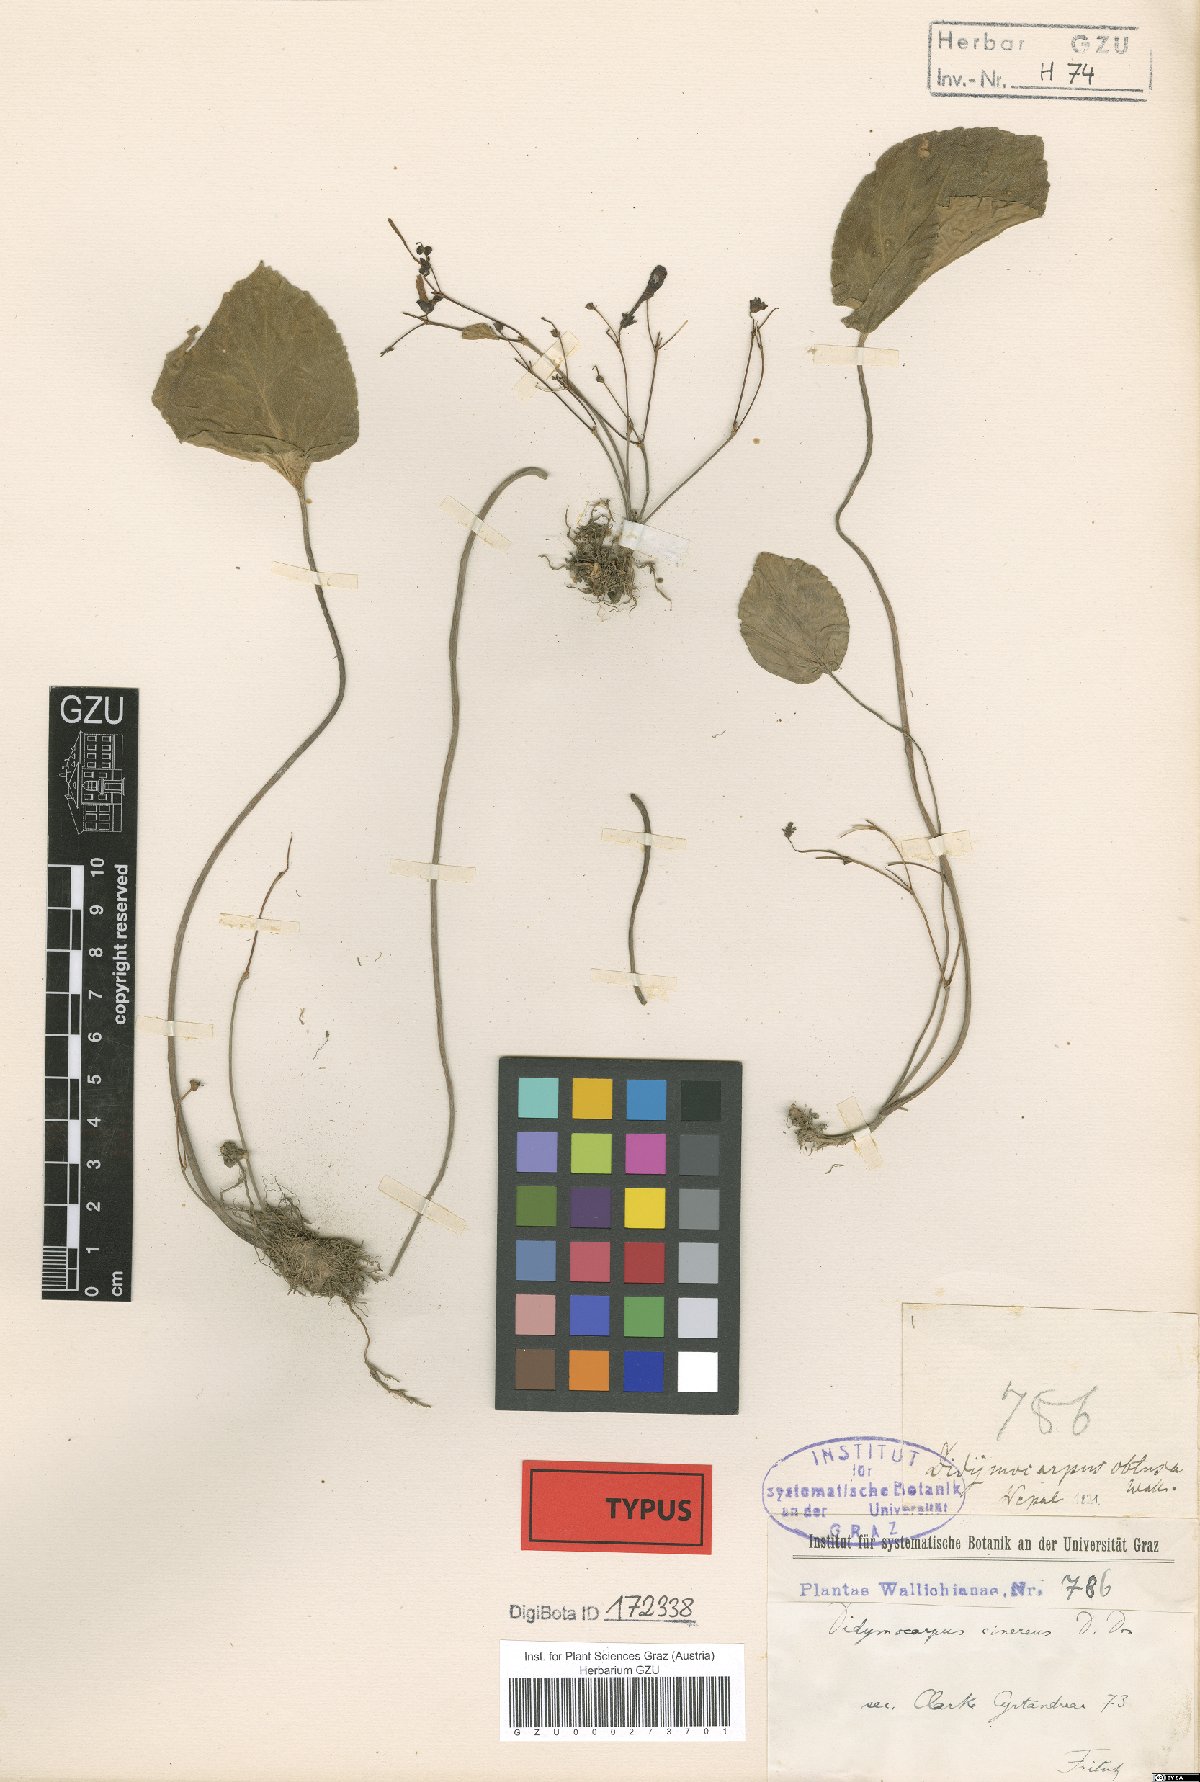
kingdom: Plantae
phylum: Tracheophyta
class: Magnoliopsida
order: Lamiales
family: Gesneriaceae
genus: Didymocarpus
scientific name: Didymocarpus cinerea
